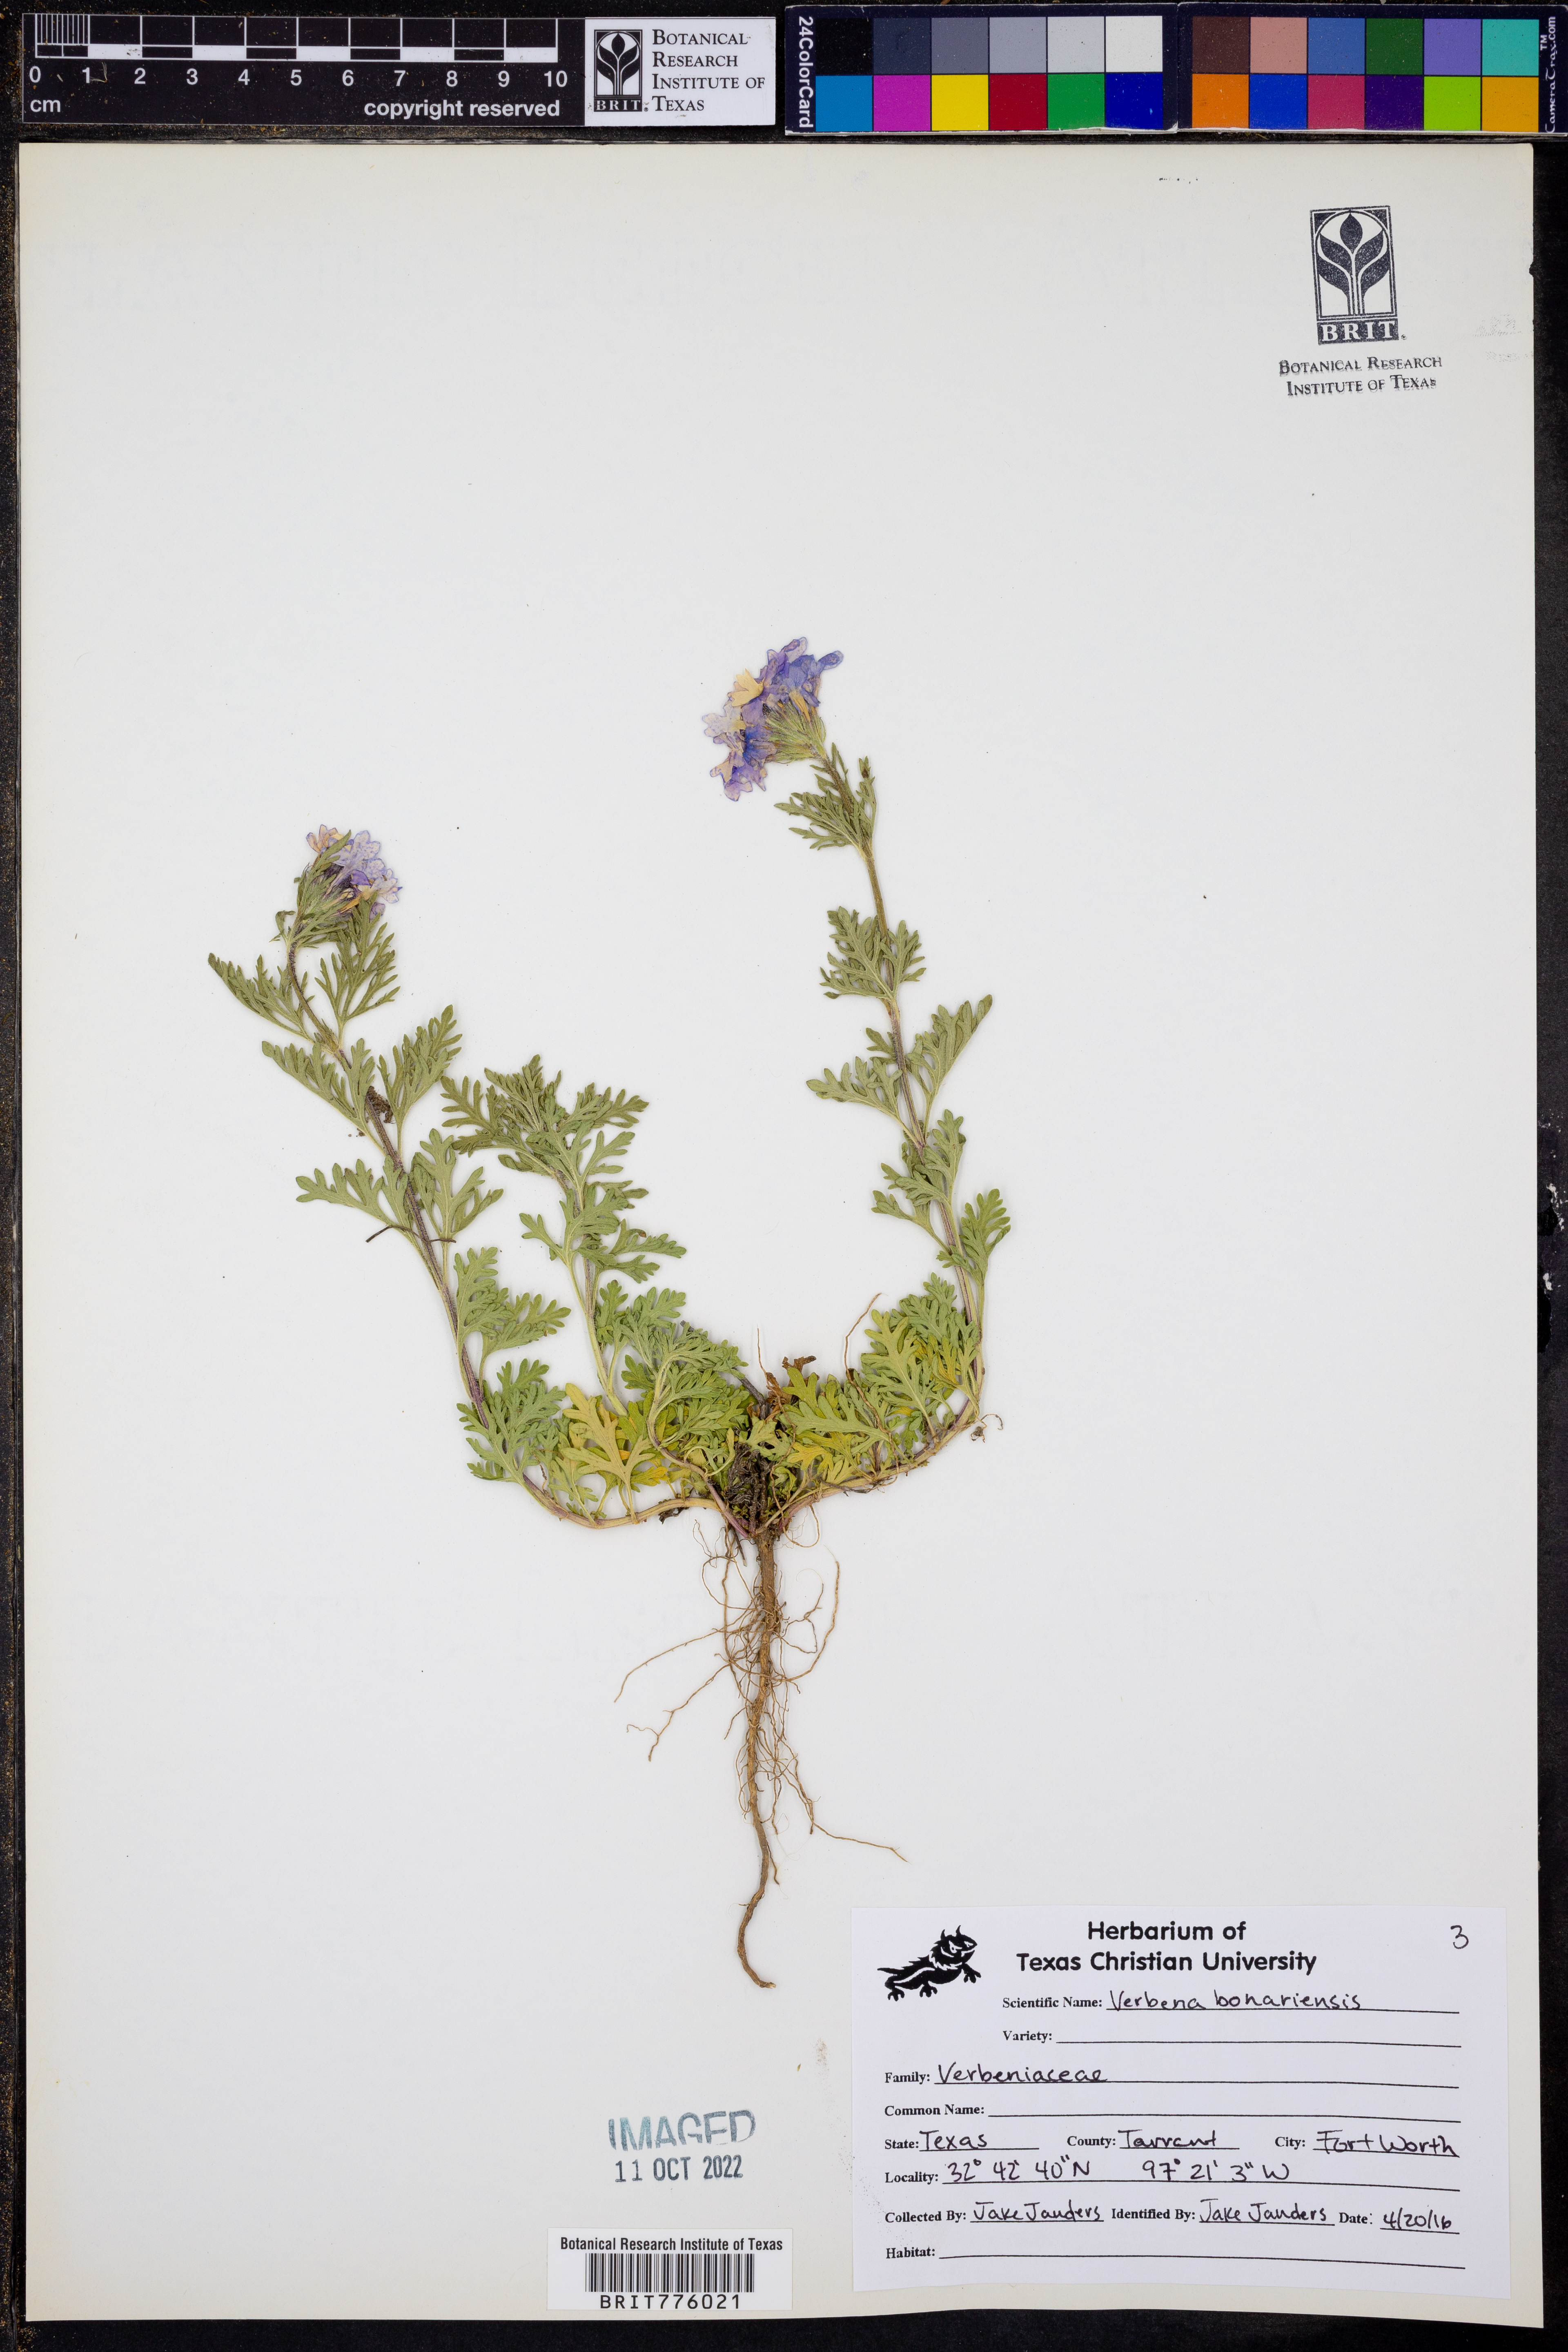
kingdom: Plantae
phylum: Tracheophyta
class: Magnoliopsida
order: Lamiales
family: Verbenaceae
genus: Verbena
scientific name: Verbena bonariensis
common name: Purpletop vervain
